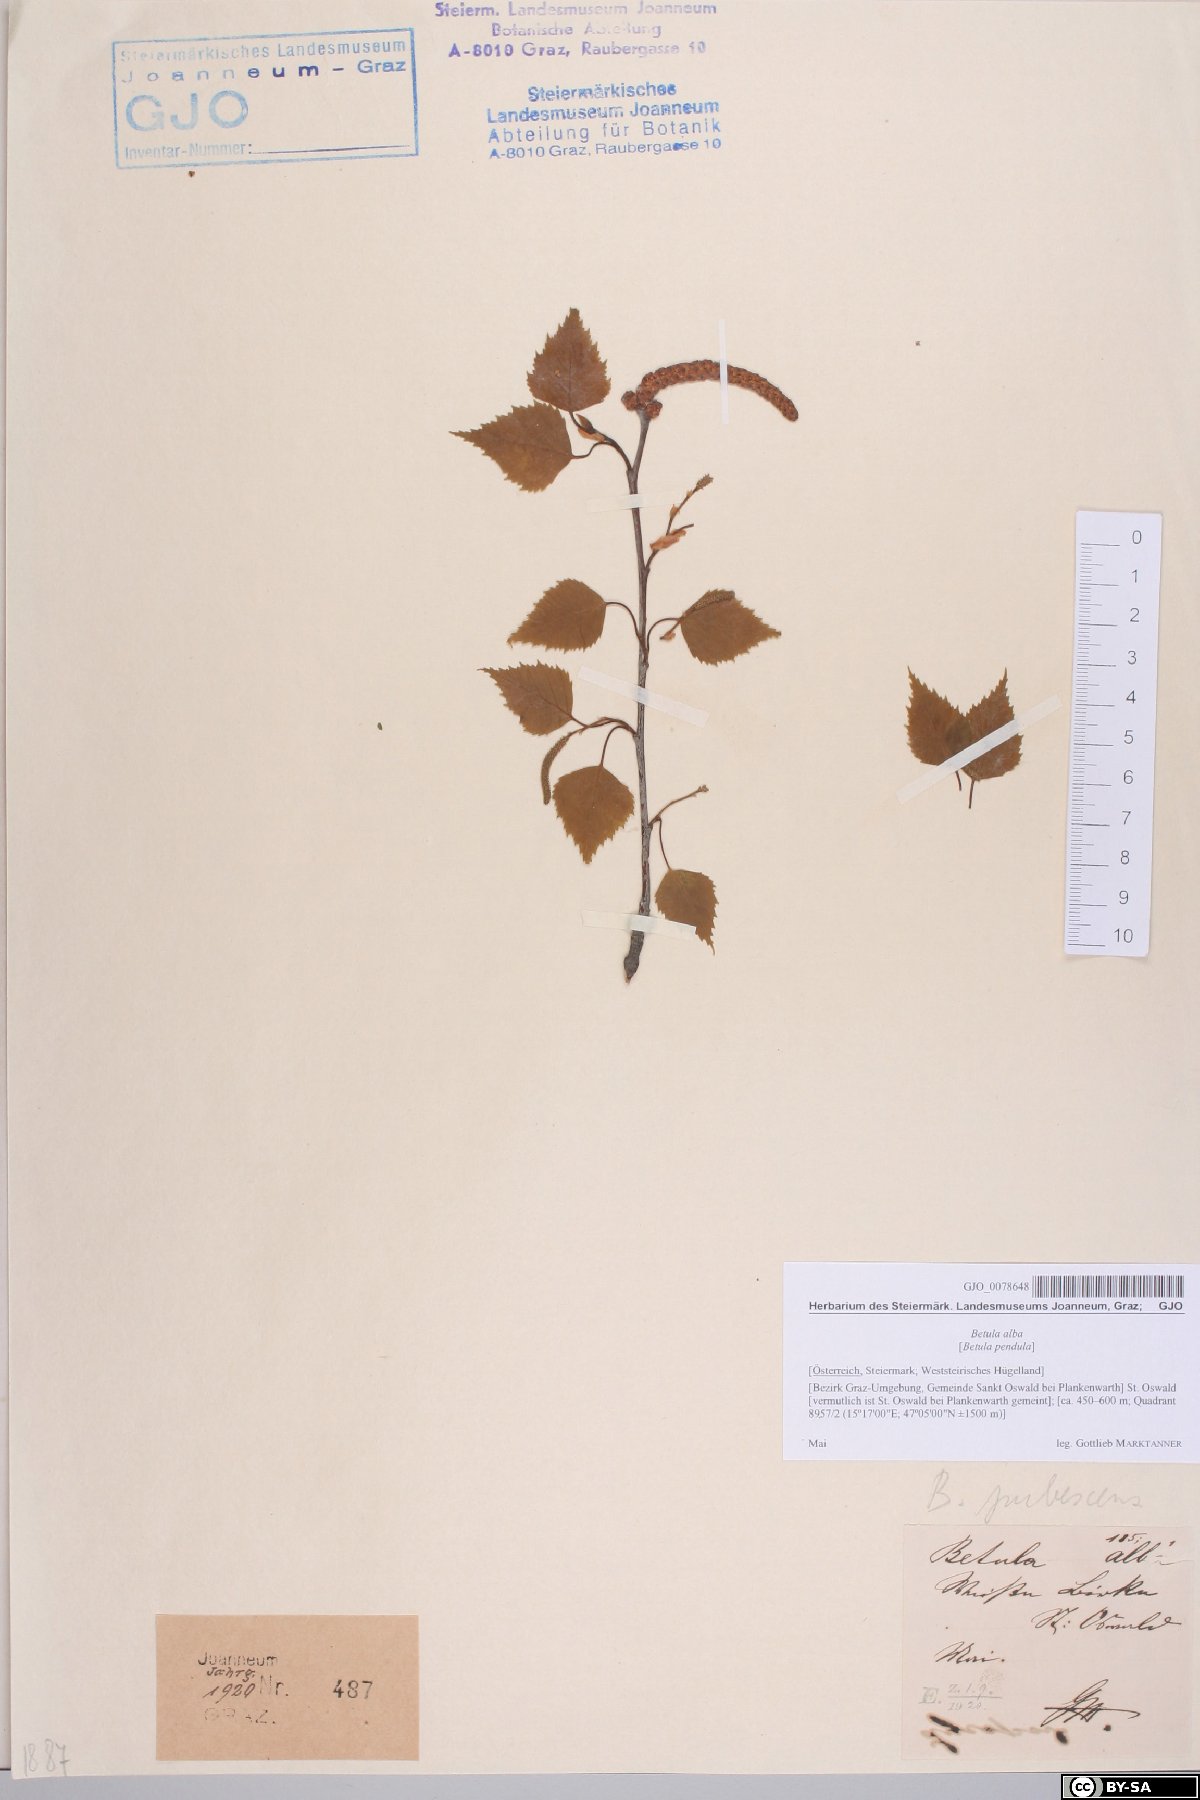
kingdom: Plantae
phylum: Tracheophyta
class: Magnoliopsida
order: Fagales
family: Betulaceae
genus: Betula
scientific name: Betula pubescens
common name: Downy birch
